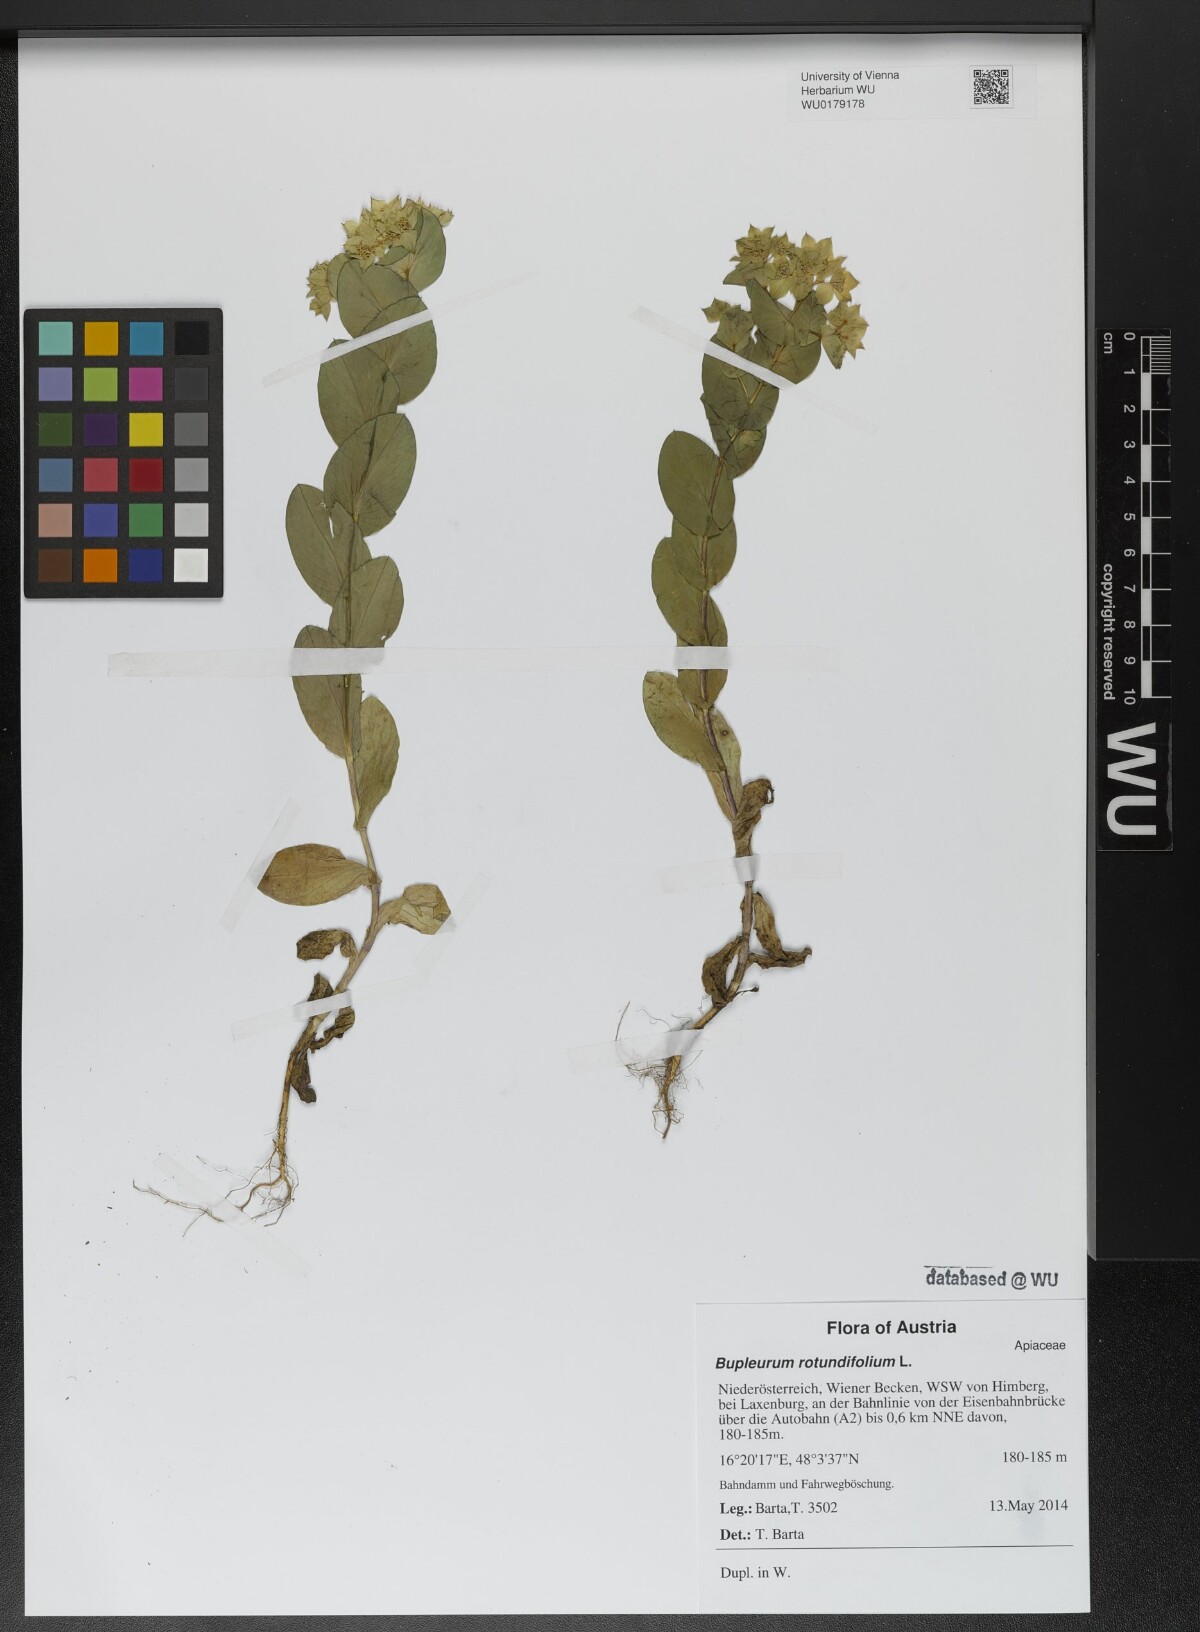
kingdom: Plantae
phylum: Tracheophyta
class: Magnoliopsida
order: Apiales
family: Apiaceae
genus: Bupleurum
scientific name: Bupleurum rotundifolium
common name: Thorow-wax
